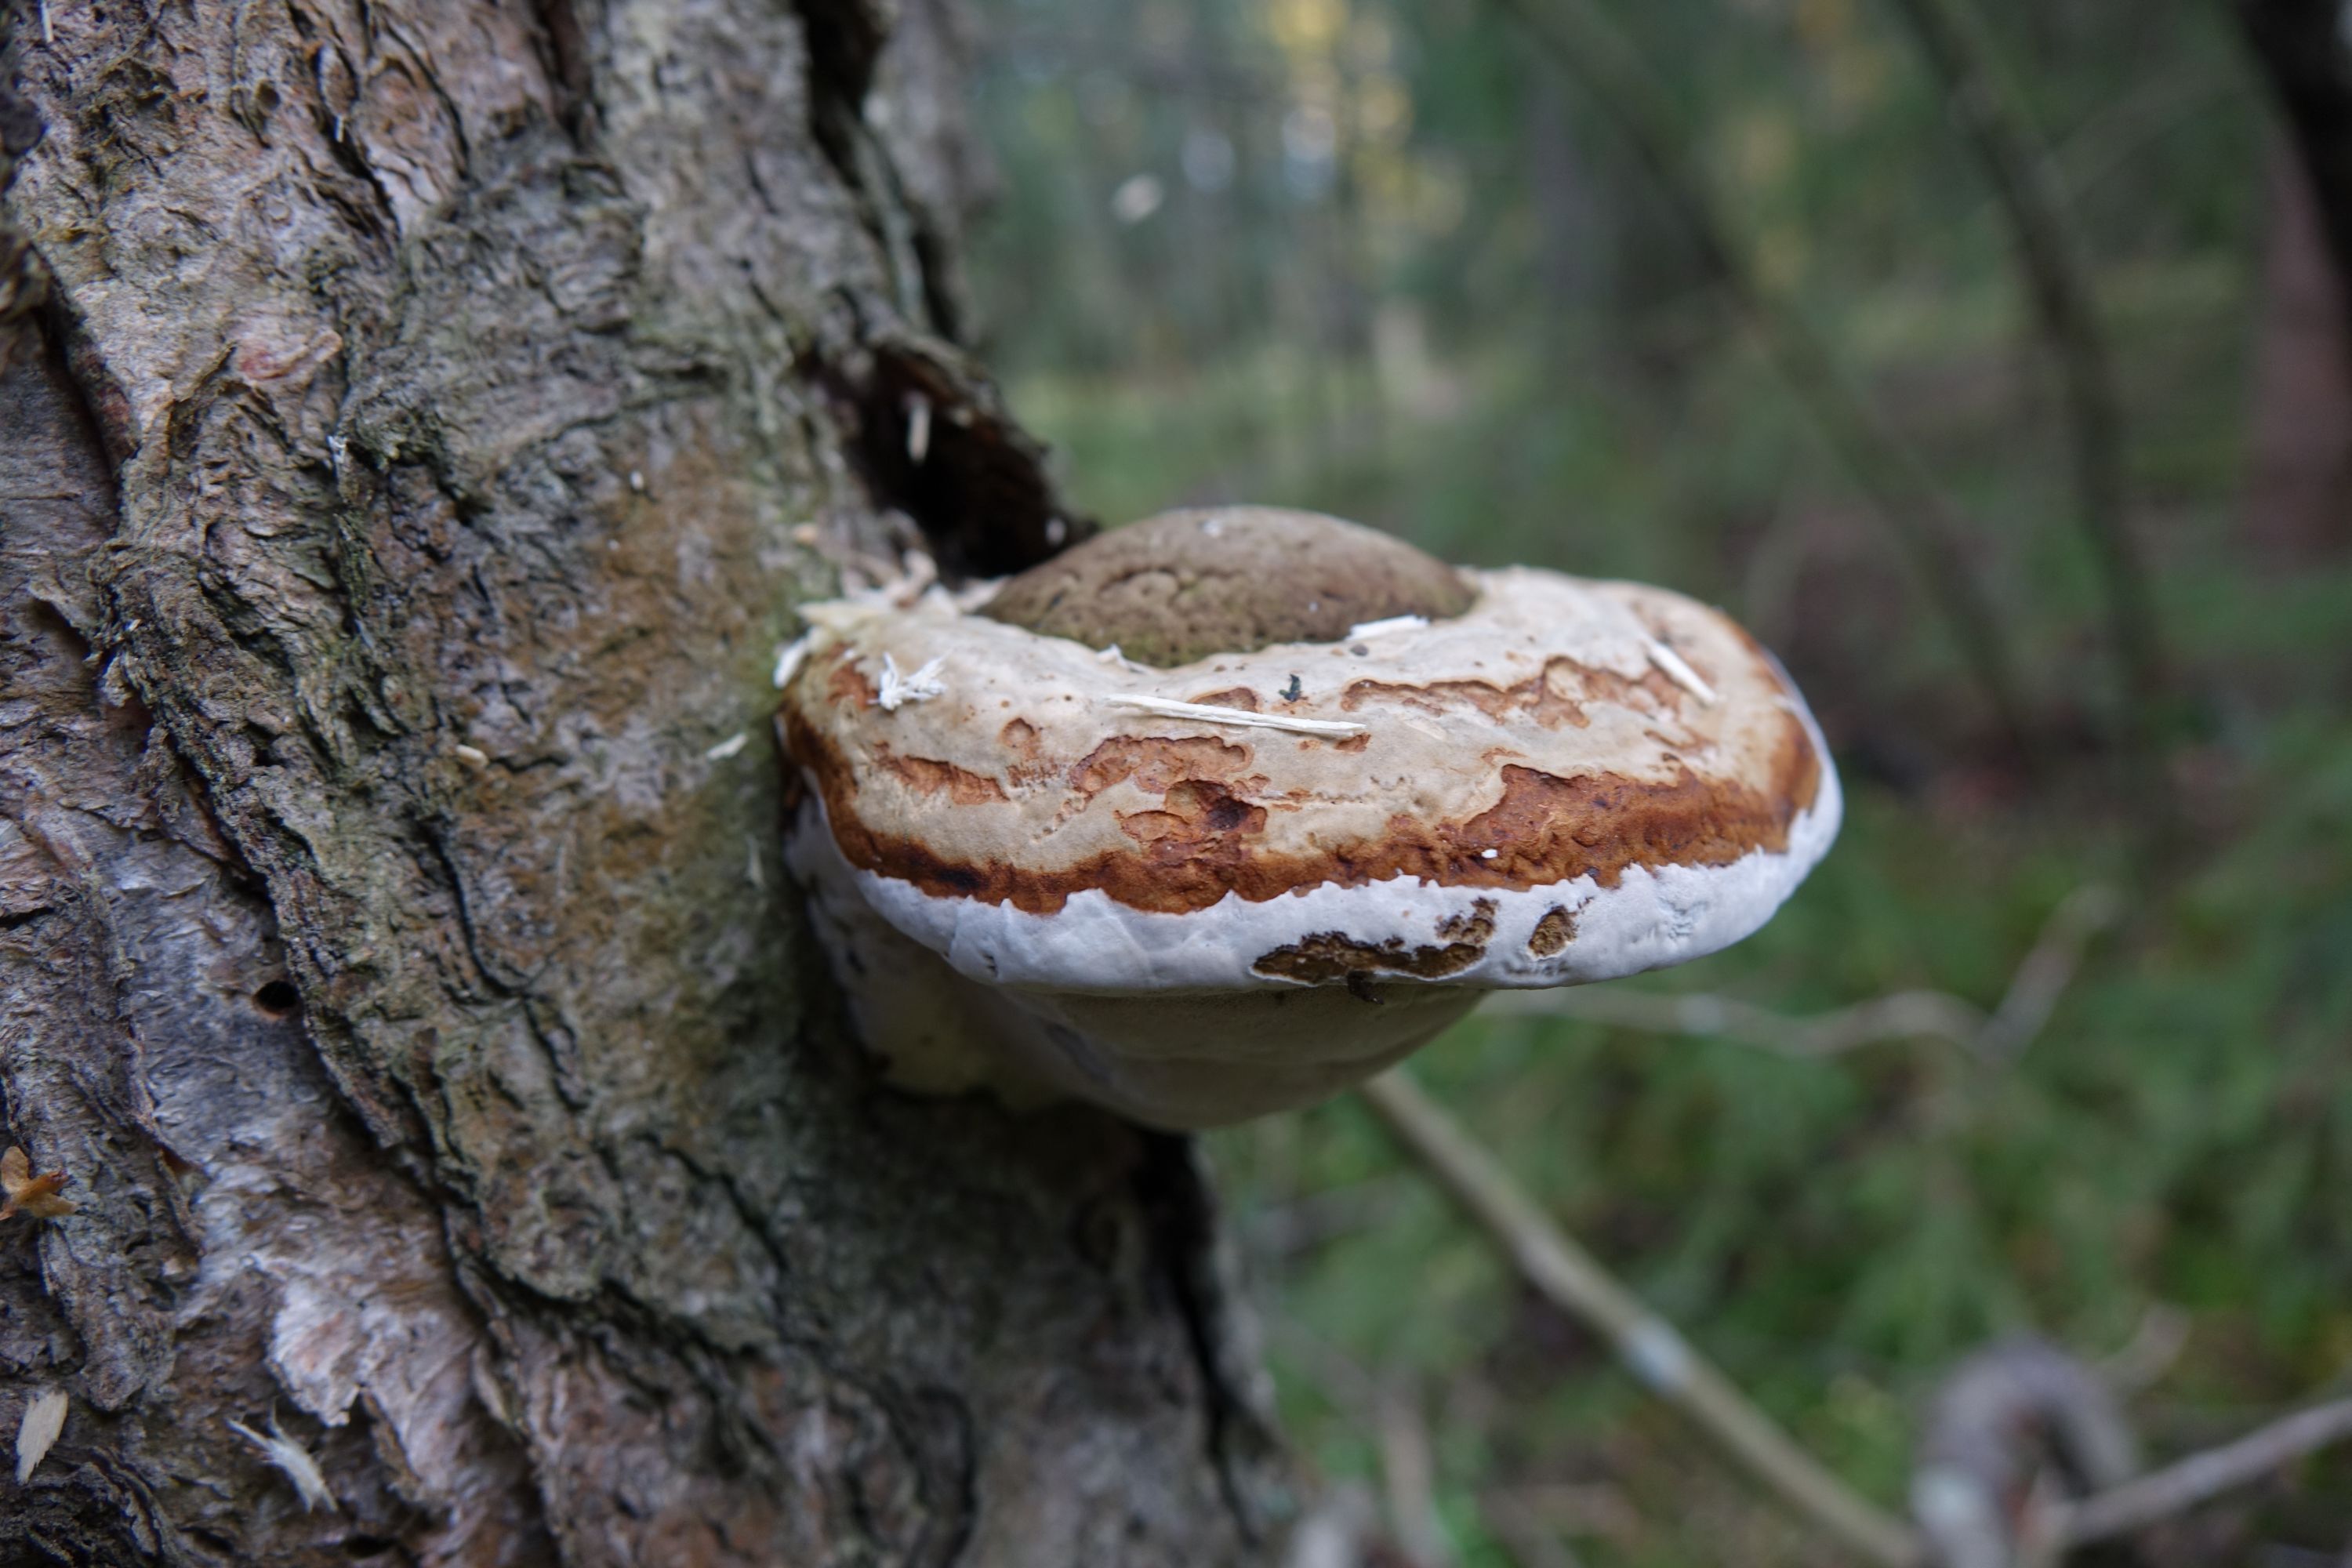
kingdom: Fungi
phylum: Basidiomycota
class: Agaricomycetes
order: Polyporales
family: Polyporaceae
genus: Fomes
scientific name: Fomes fomentarius
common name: Hoof fungus
